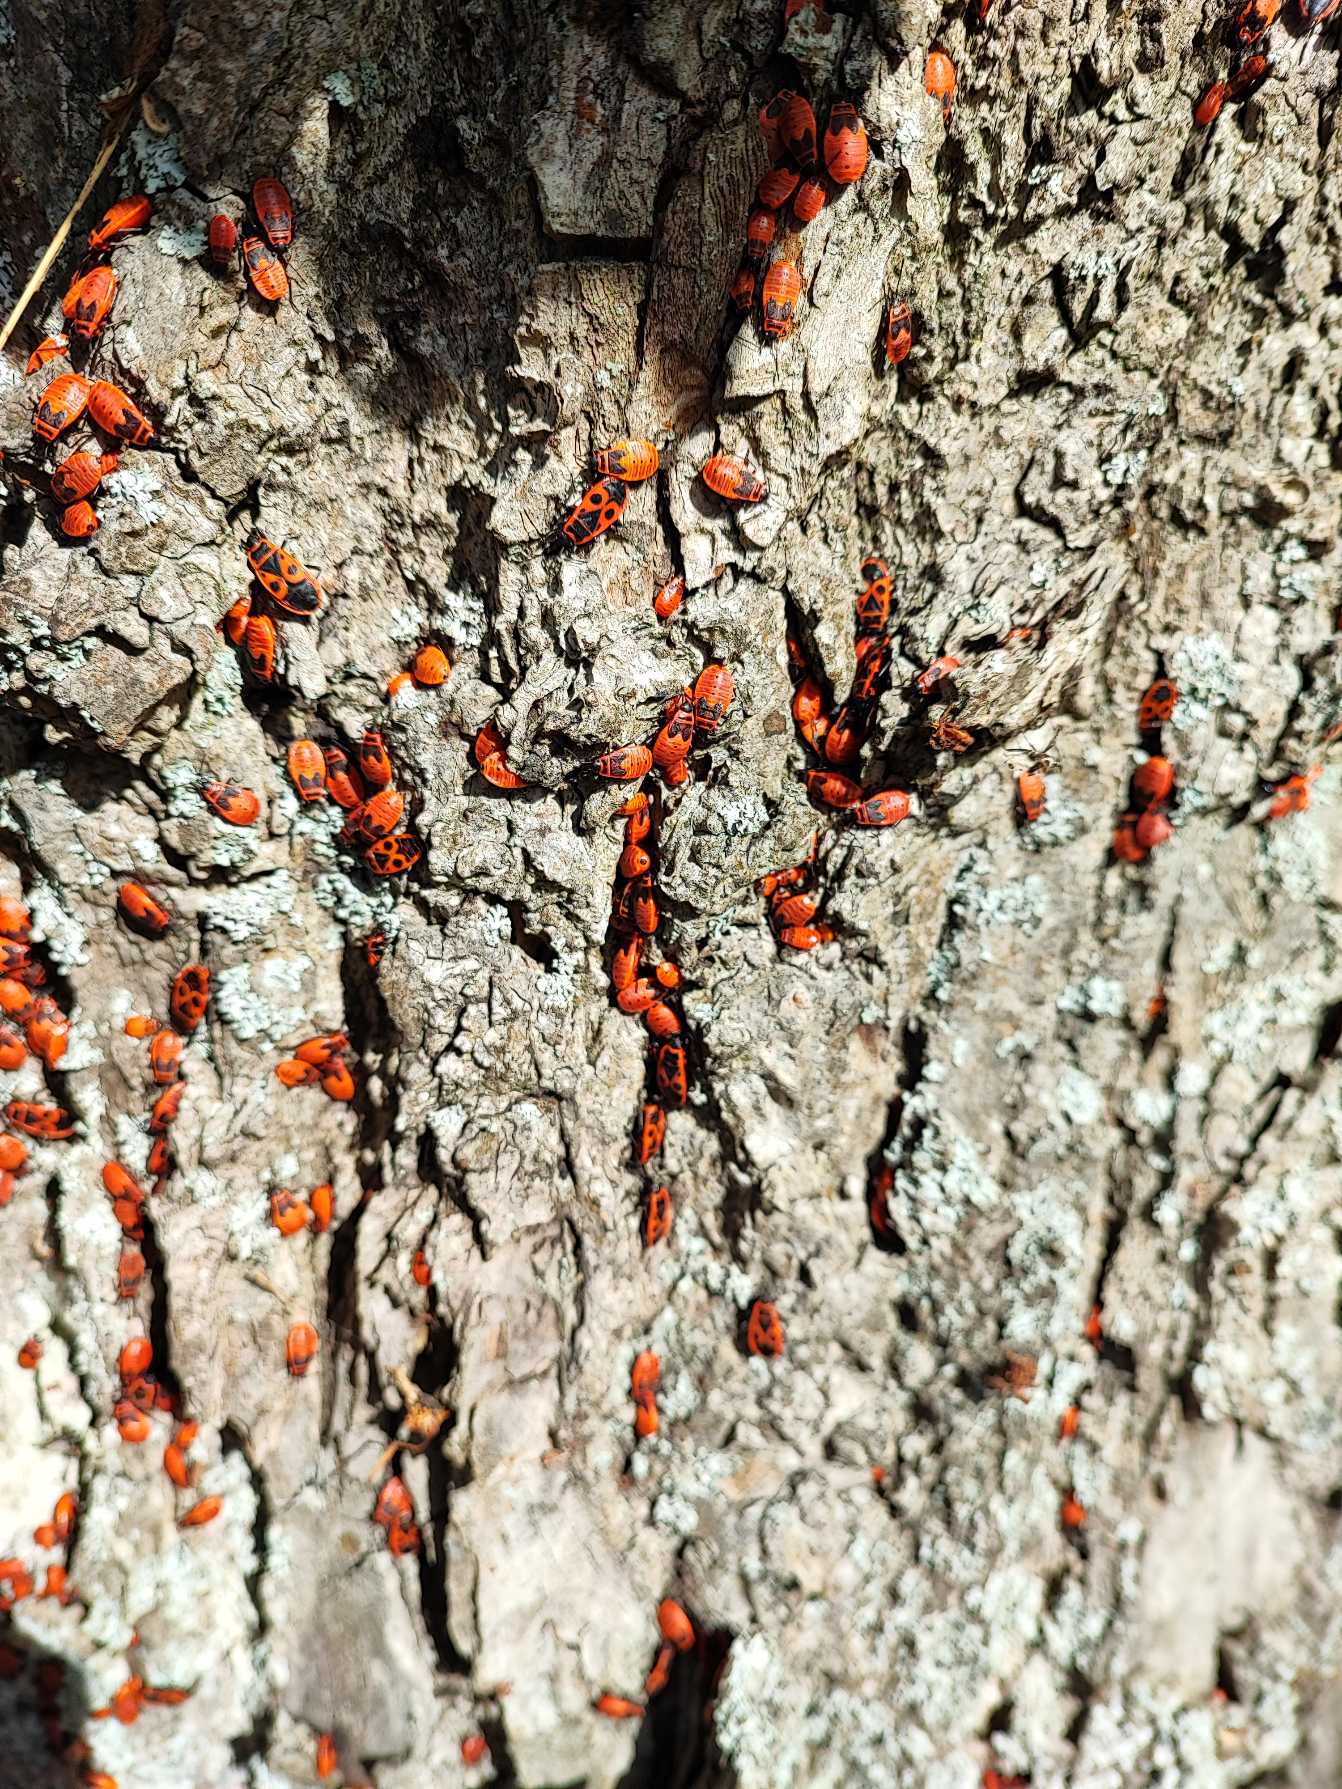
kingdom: Animalia
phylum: Arthropoda
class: Insecta
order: Hemiptera
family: Pyrrhocoridae
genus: Pyrrhocoris
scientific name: Pyrrhocoris apterus
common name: Ildtæge
